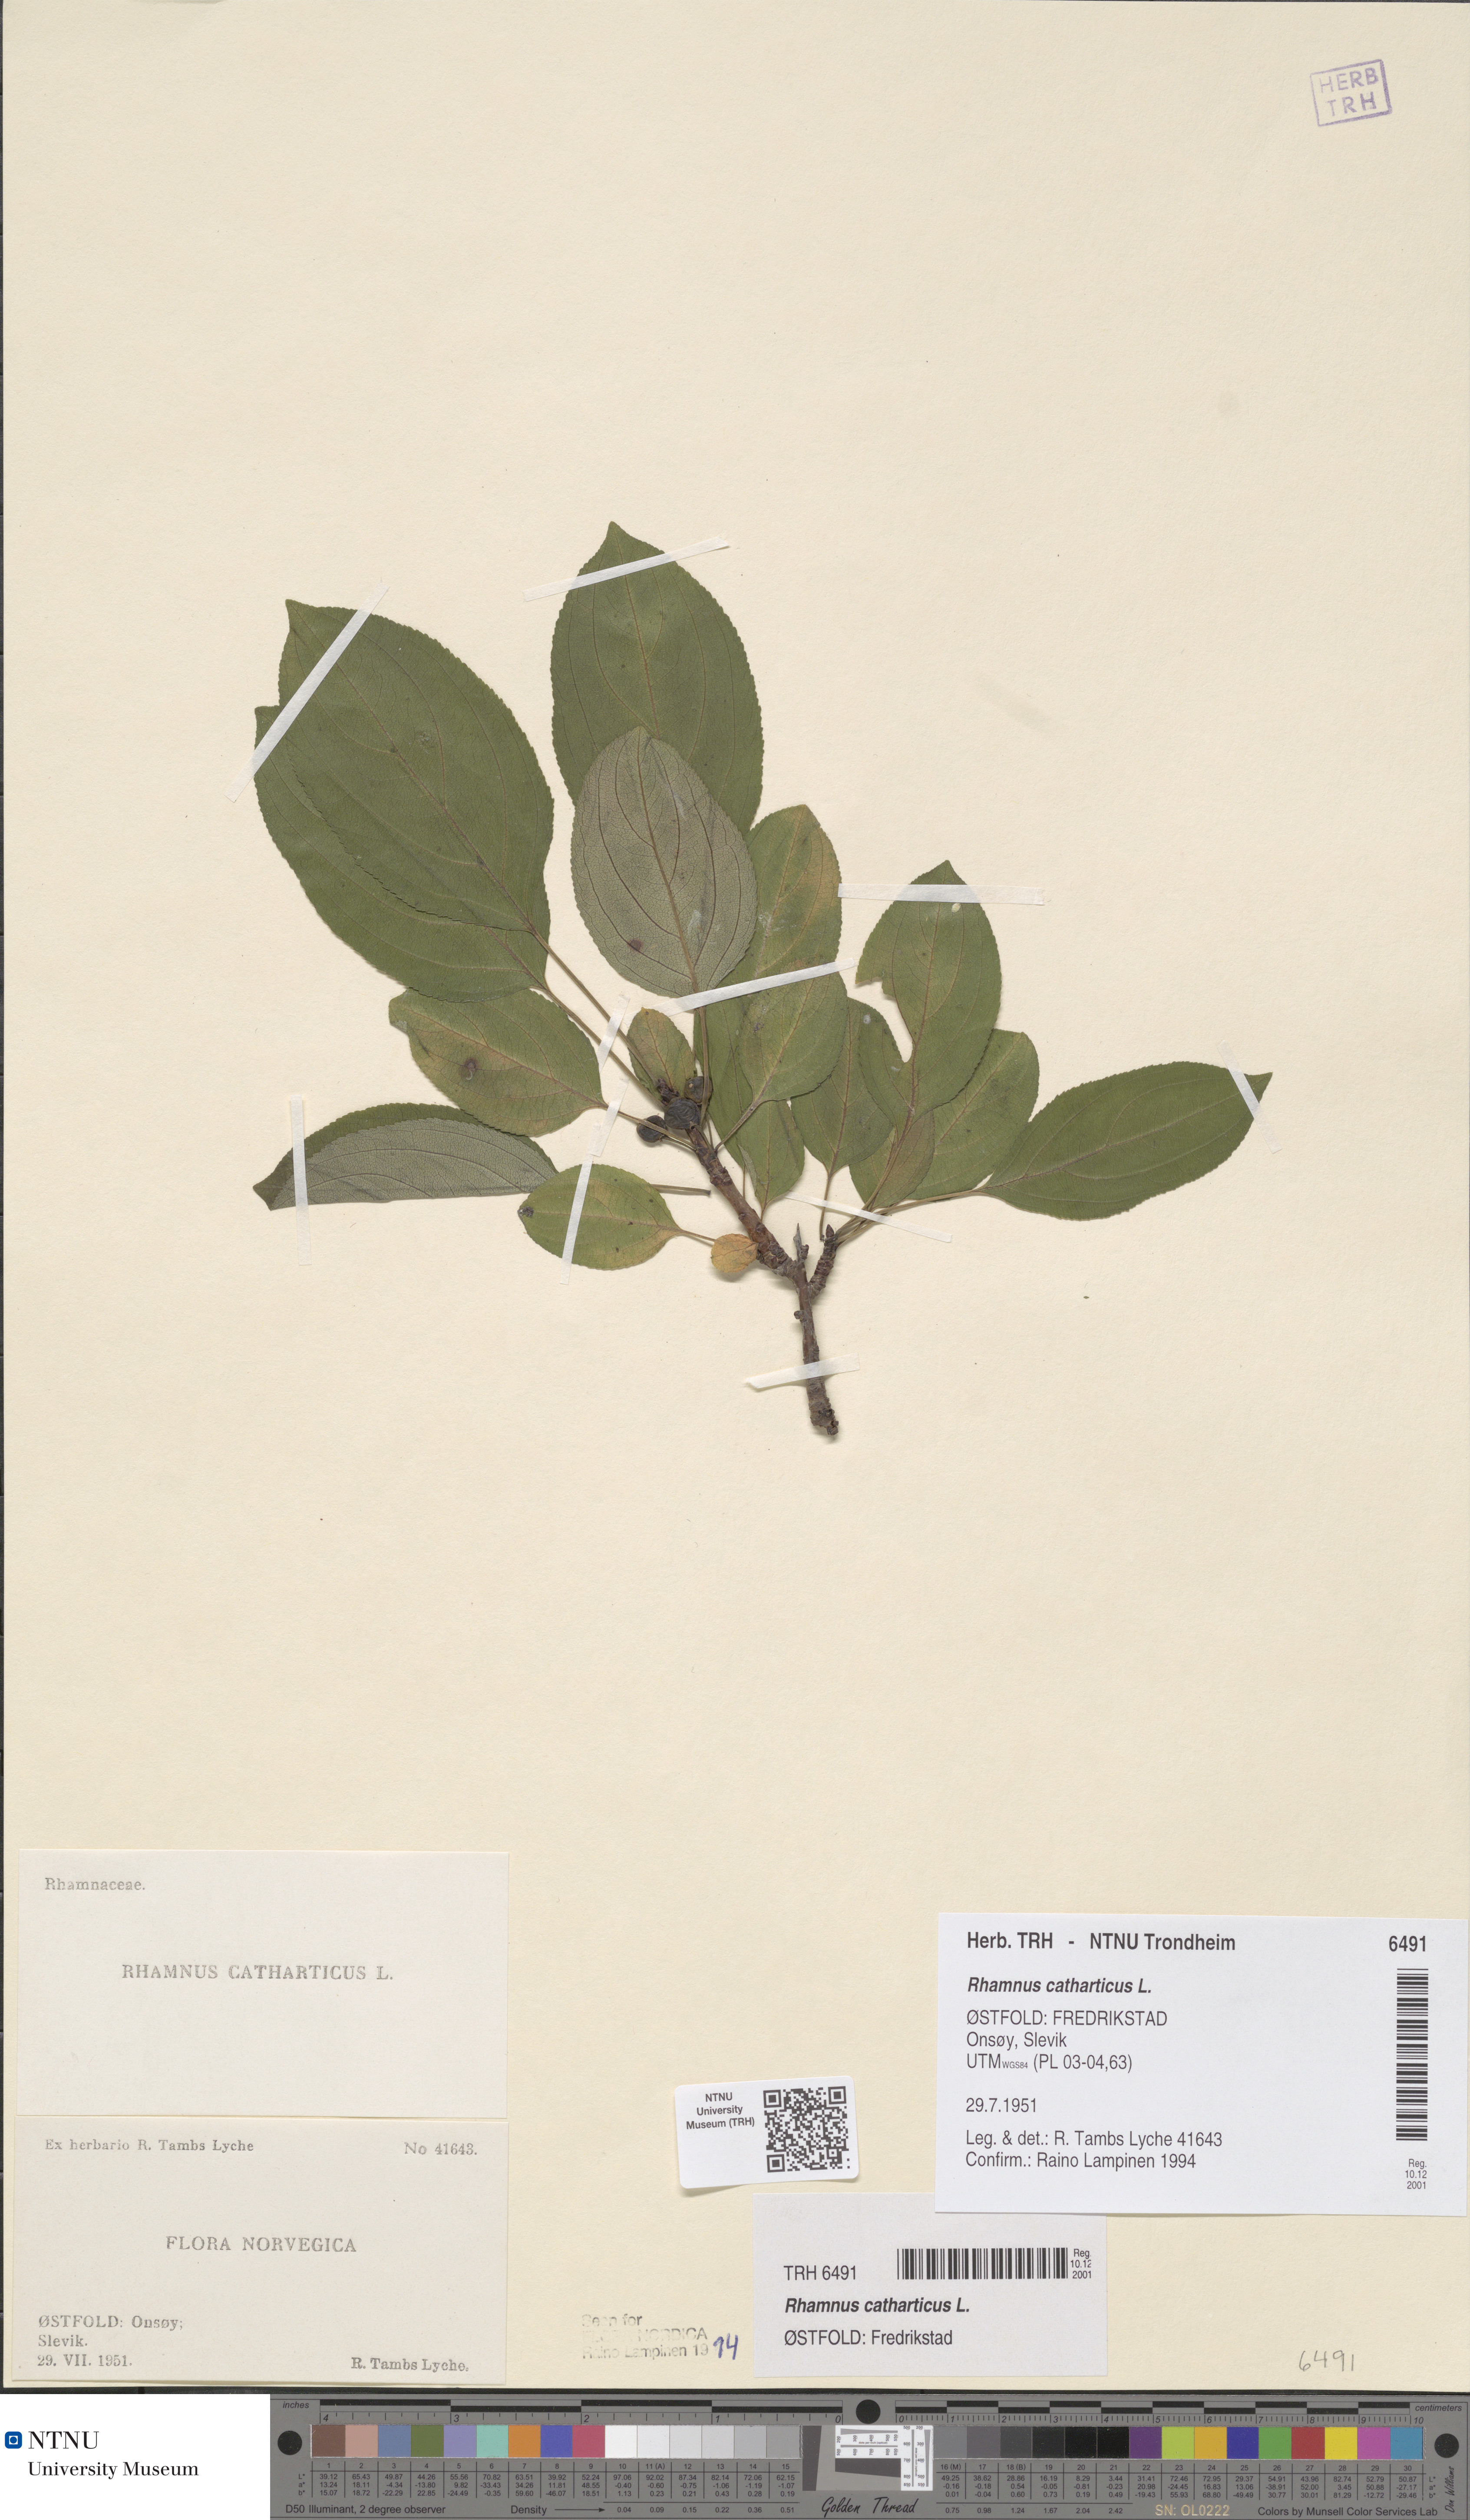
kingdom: Plantae
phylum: Tracheophyta
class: Magnoliopsida
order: Rosales
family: Rhamnaceae
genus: Rhamnus
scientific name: Rhamnus cathartica
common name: Common buckthorn
